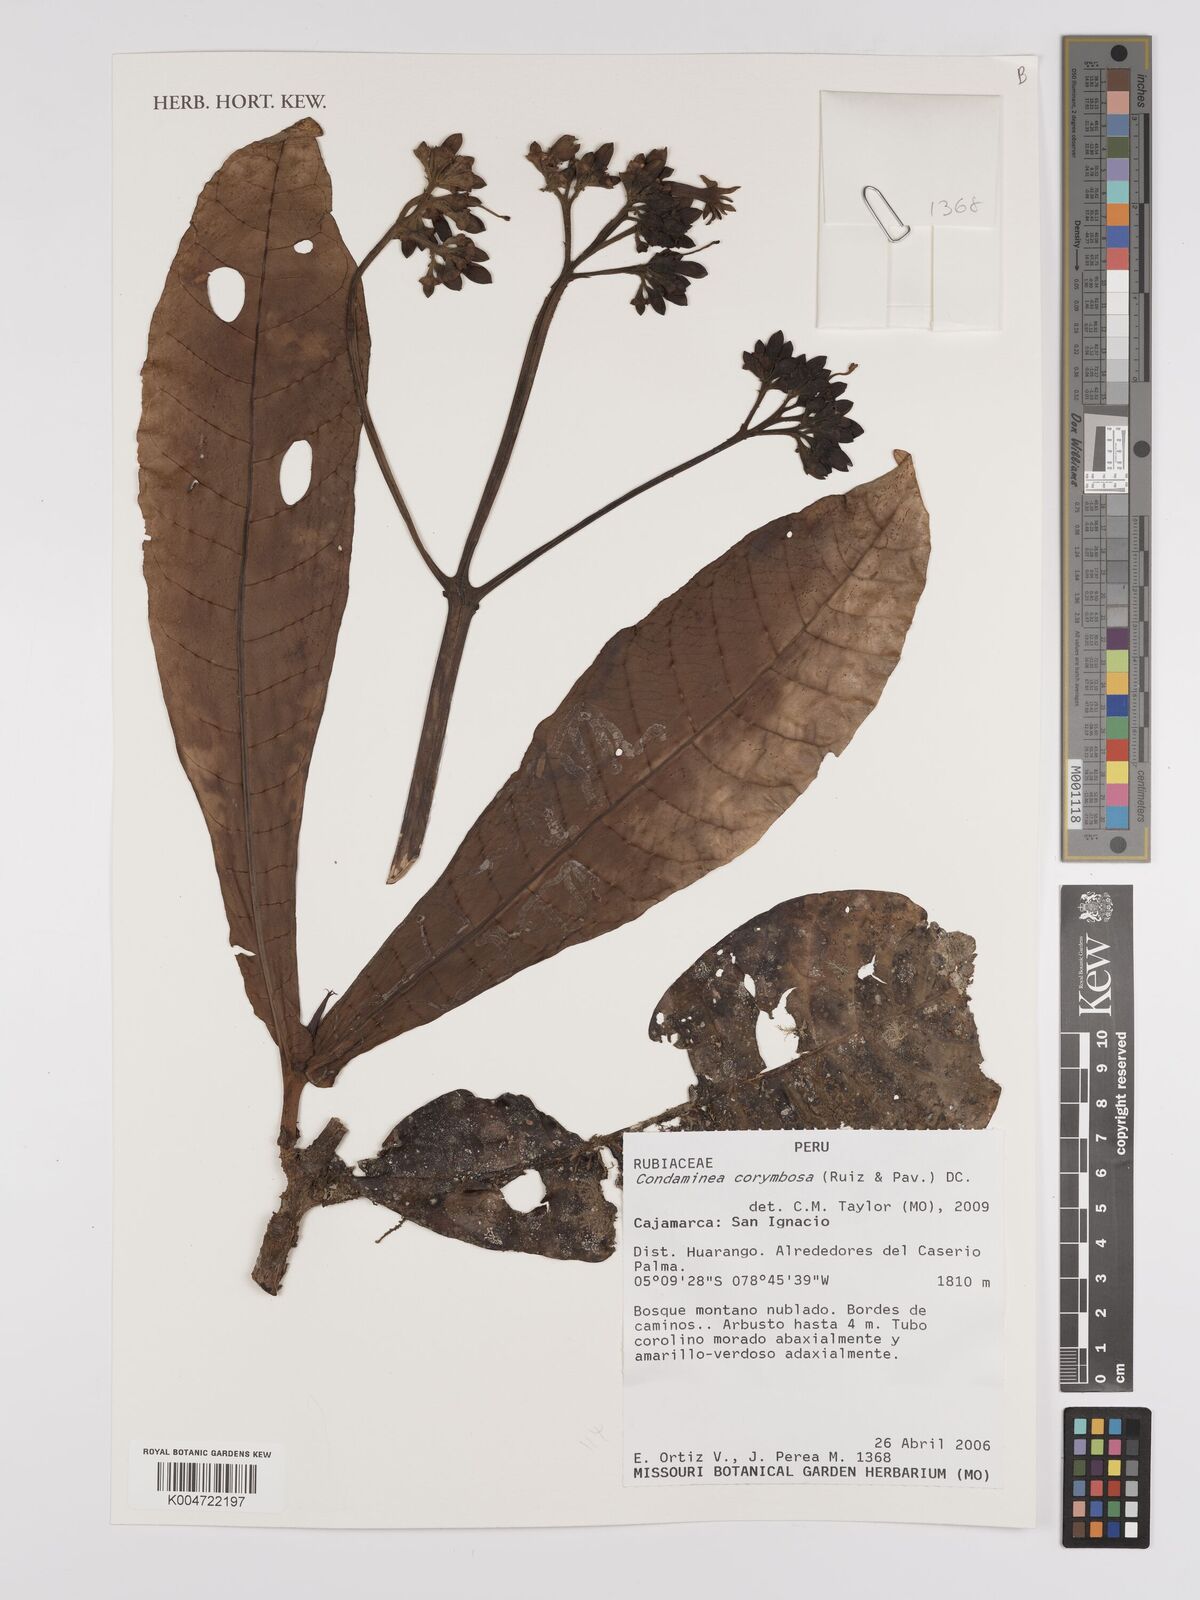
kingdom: Plantae
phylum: Tracheophyta
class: Magnoliopsida
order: Gentianales
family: Rubiaceae
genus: Condaminea
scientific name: Condaminea corymbosa
